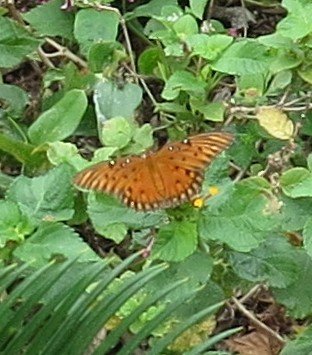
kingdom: Animalia
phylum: Arthropoda
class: Insecta
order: Lepidoptera
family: Nymphalidae
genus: Dione
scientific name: Dione vanillae
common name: Gulf Fritillary
